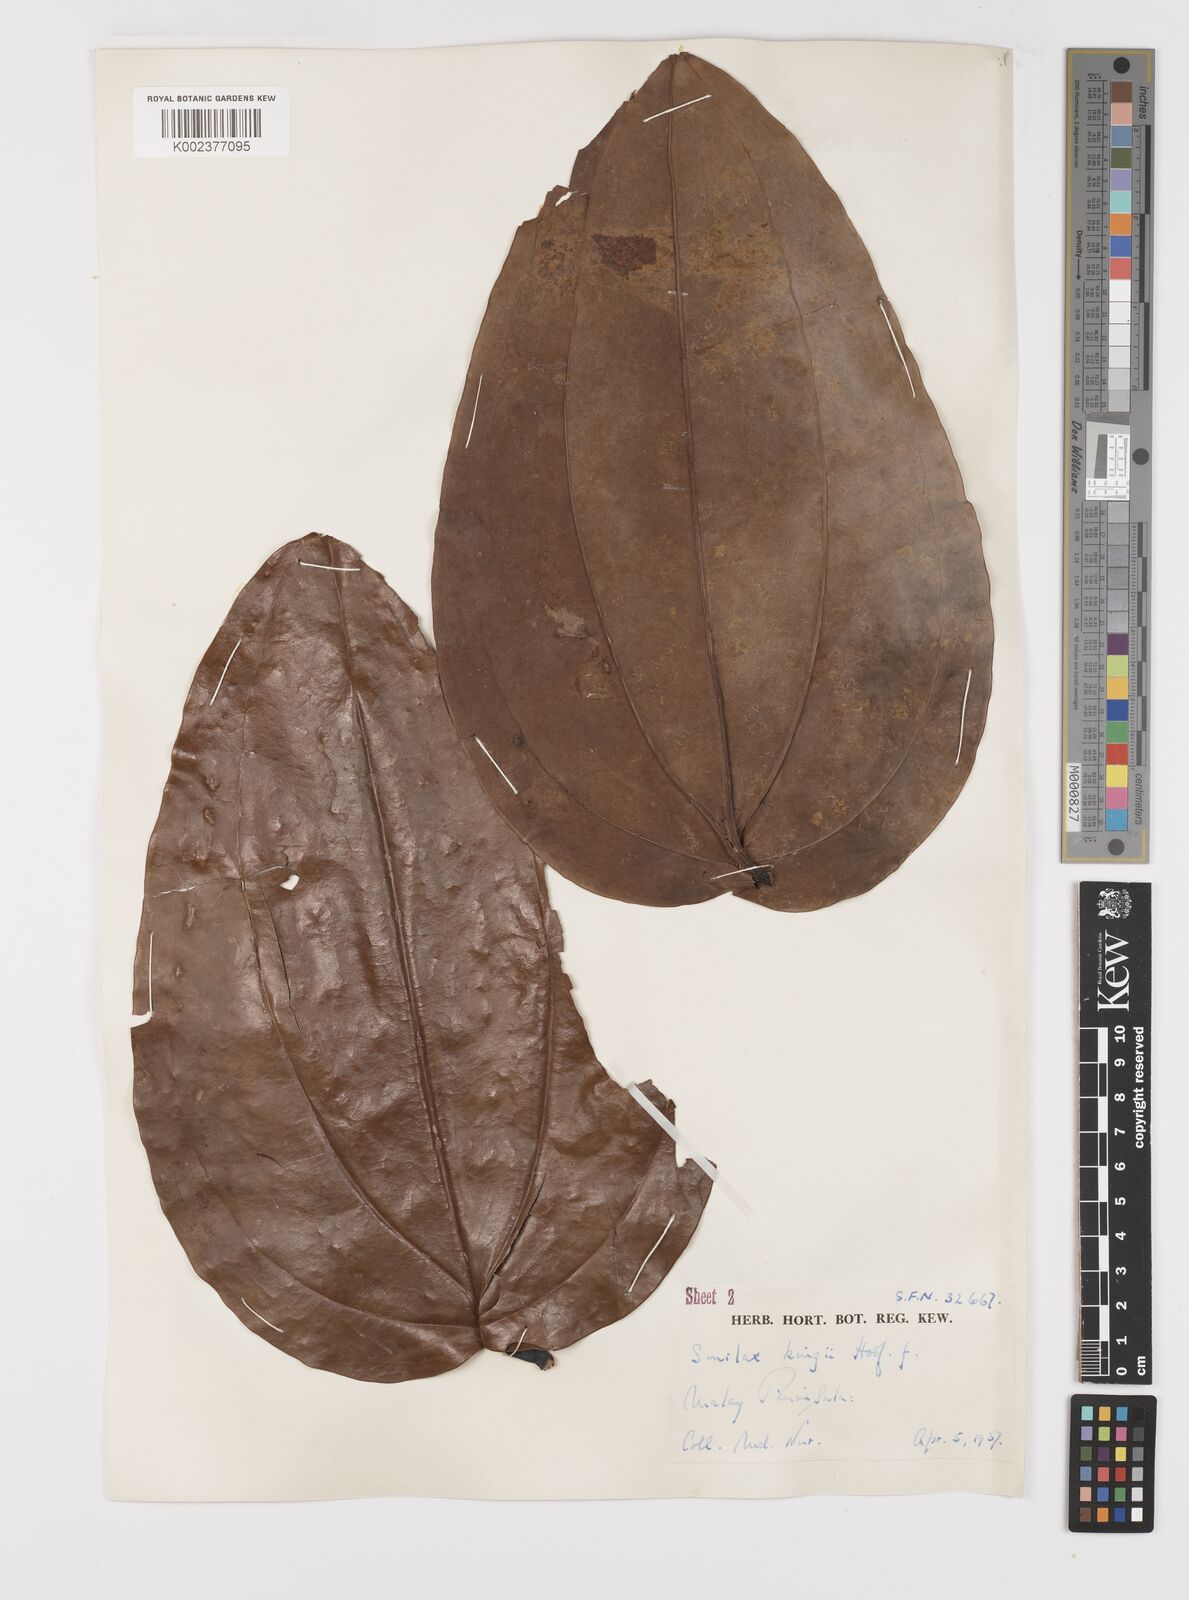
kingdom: Plantae
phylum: Tracheophyta
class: Liliopsida
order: Liliales
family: Smilacaceae
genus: Smilax
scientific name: Smilax kingii
